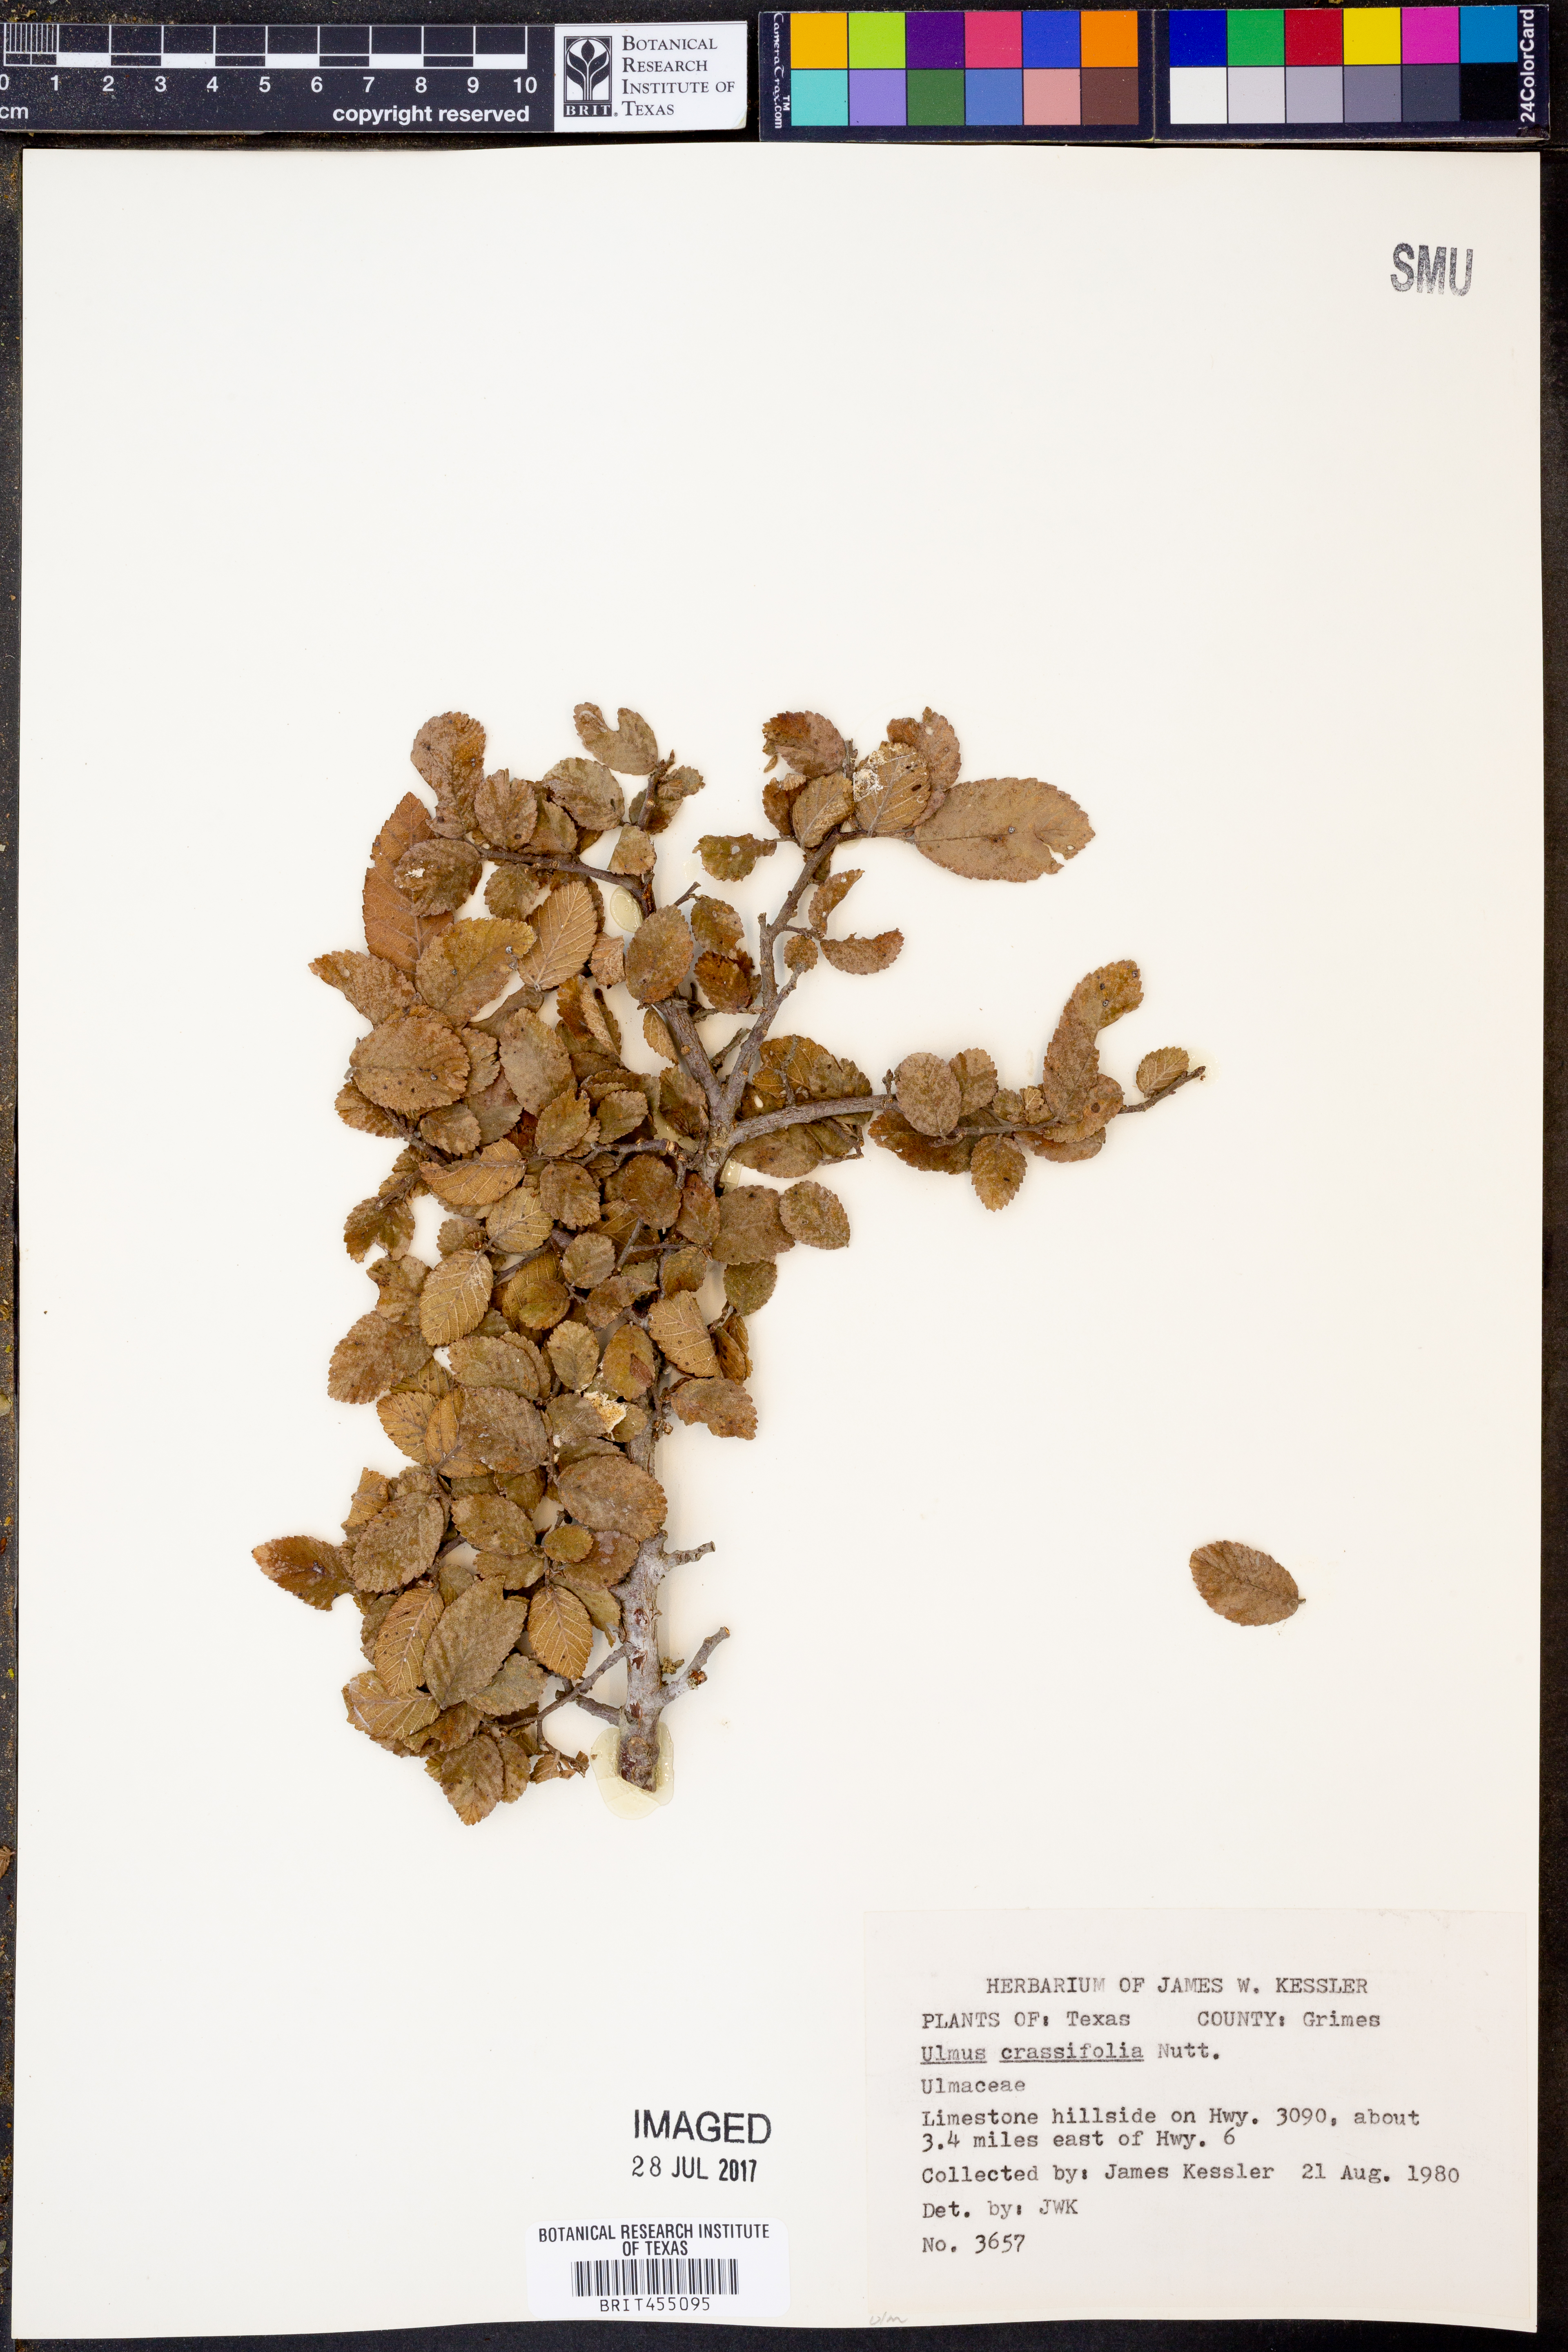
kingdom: Plantae
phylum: Tracheophyta
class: Magnoliopsida
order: Rosales
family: Ulmaceae
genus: Ulmus
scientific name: Ulmus crassifolia
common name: Basket elm
